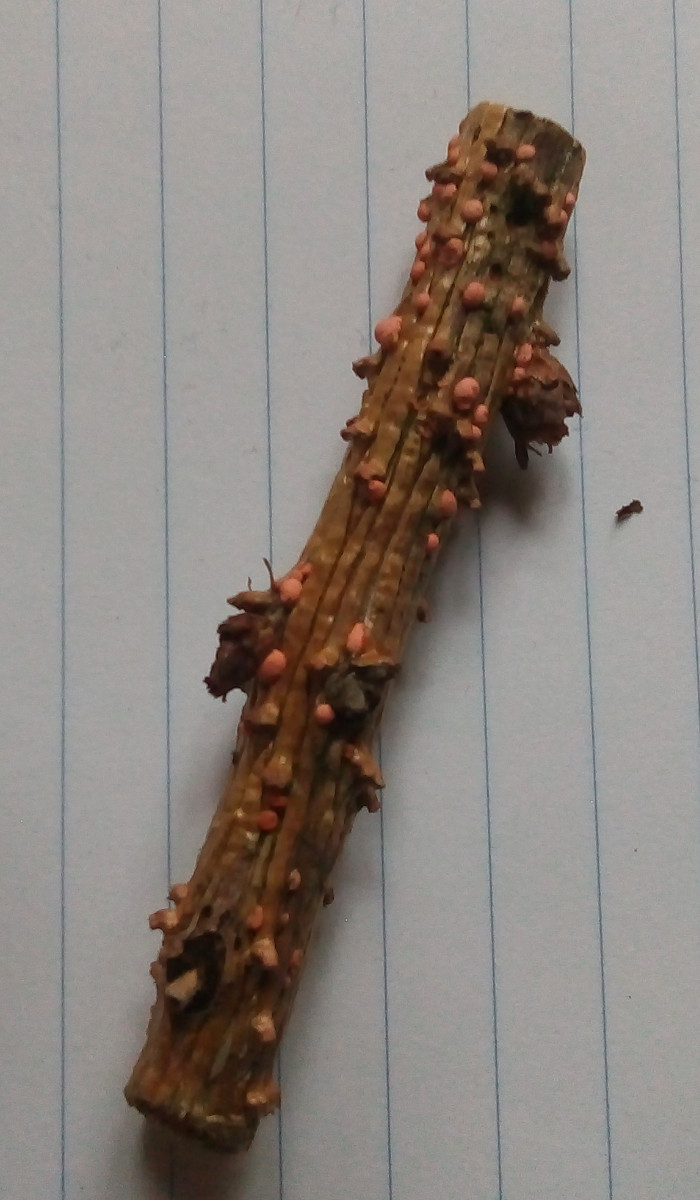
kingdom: Fungi
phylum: Ascomycota
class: Sordariomycetes
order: Hypocreales
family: Nectriaceae
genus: Nectria
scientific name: Nectria
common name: cinnobersvamp
